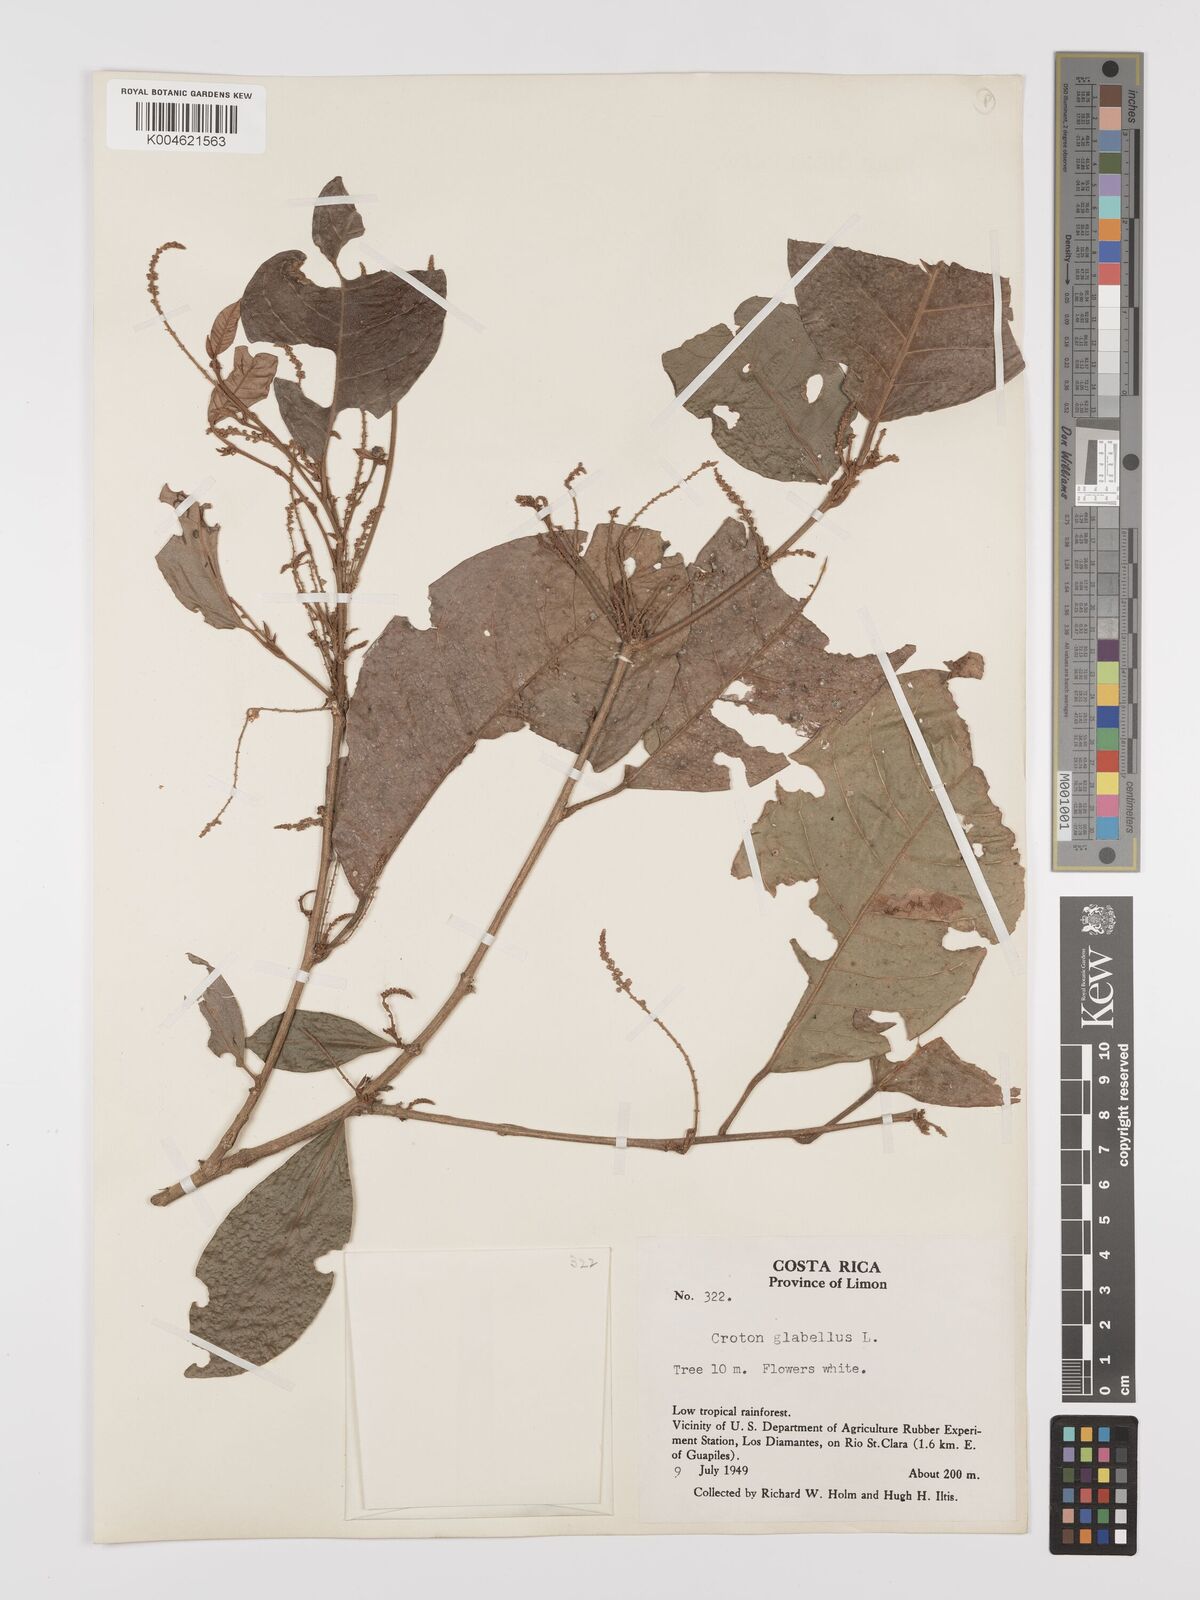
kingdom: Plantae
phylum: Tracheophyta
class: Magnoliopsida
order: Malpighiales
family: Euphorbiaceae
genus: Croton
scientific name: Croton glabellus
